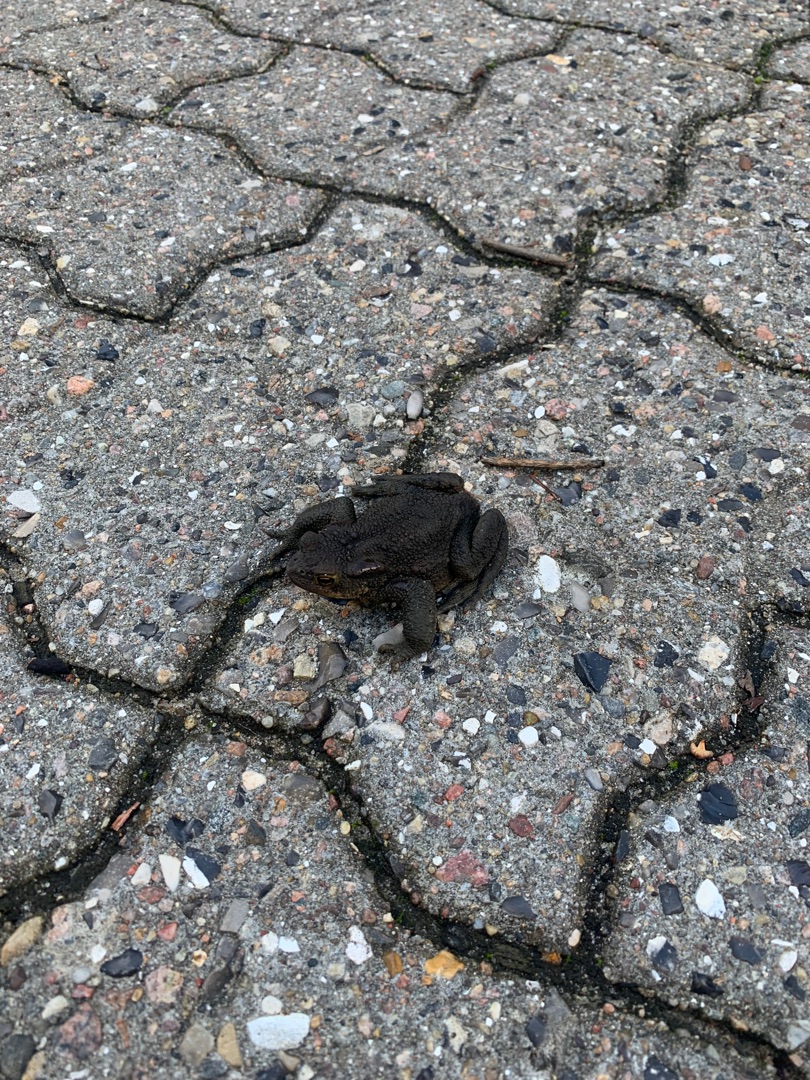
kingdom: Animalia
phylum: Chordata
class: Amphibia
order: Anura
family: Bufonidae
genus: Bufo
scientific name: Bufo bufo
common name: Skrubtudse
